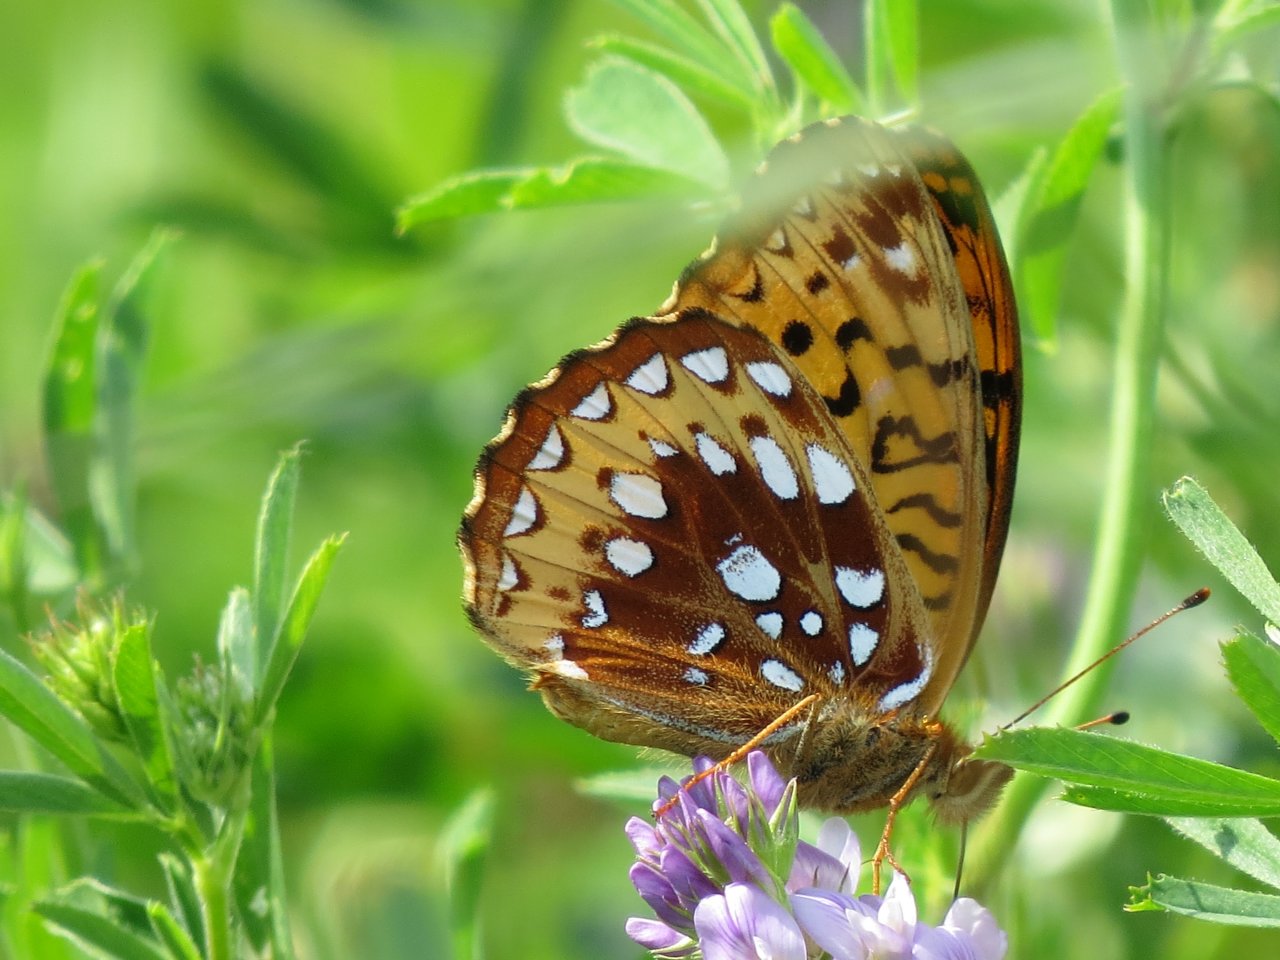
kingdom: Animalia
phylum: Arthropoda
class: Insecta
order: Lepidoptera
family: Nymphalidae
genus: Speyeria
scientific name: Speyeria cybele
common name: Great Spangled Fritillary
